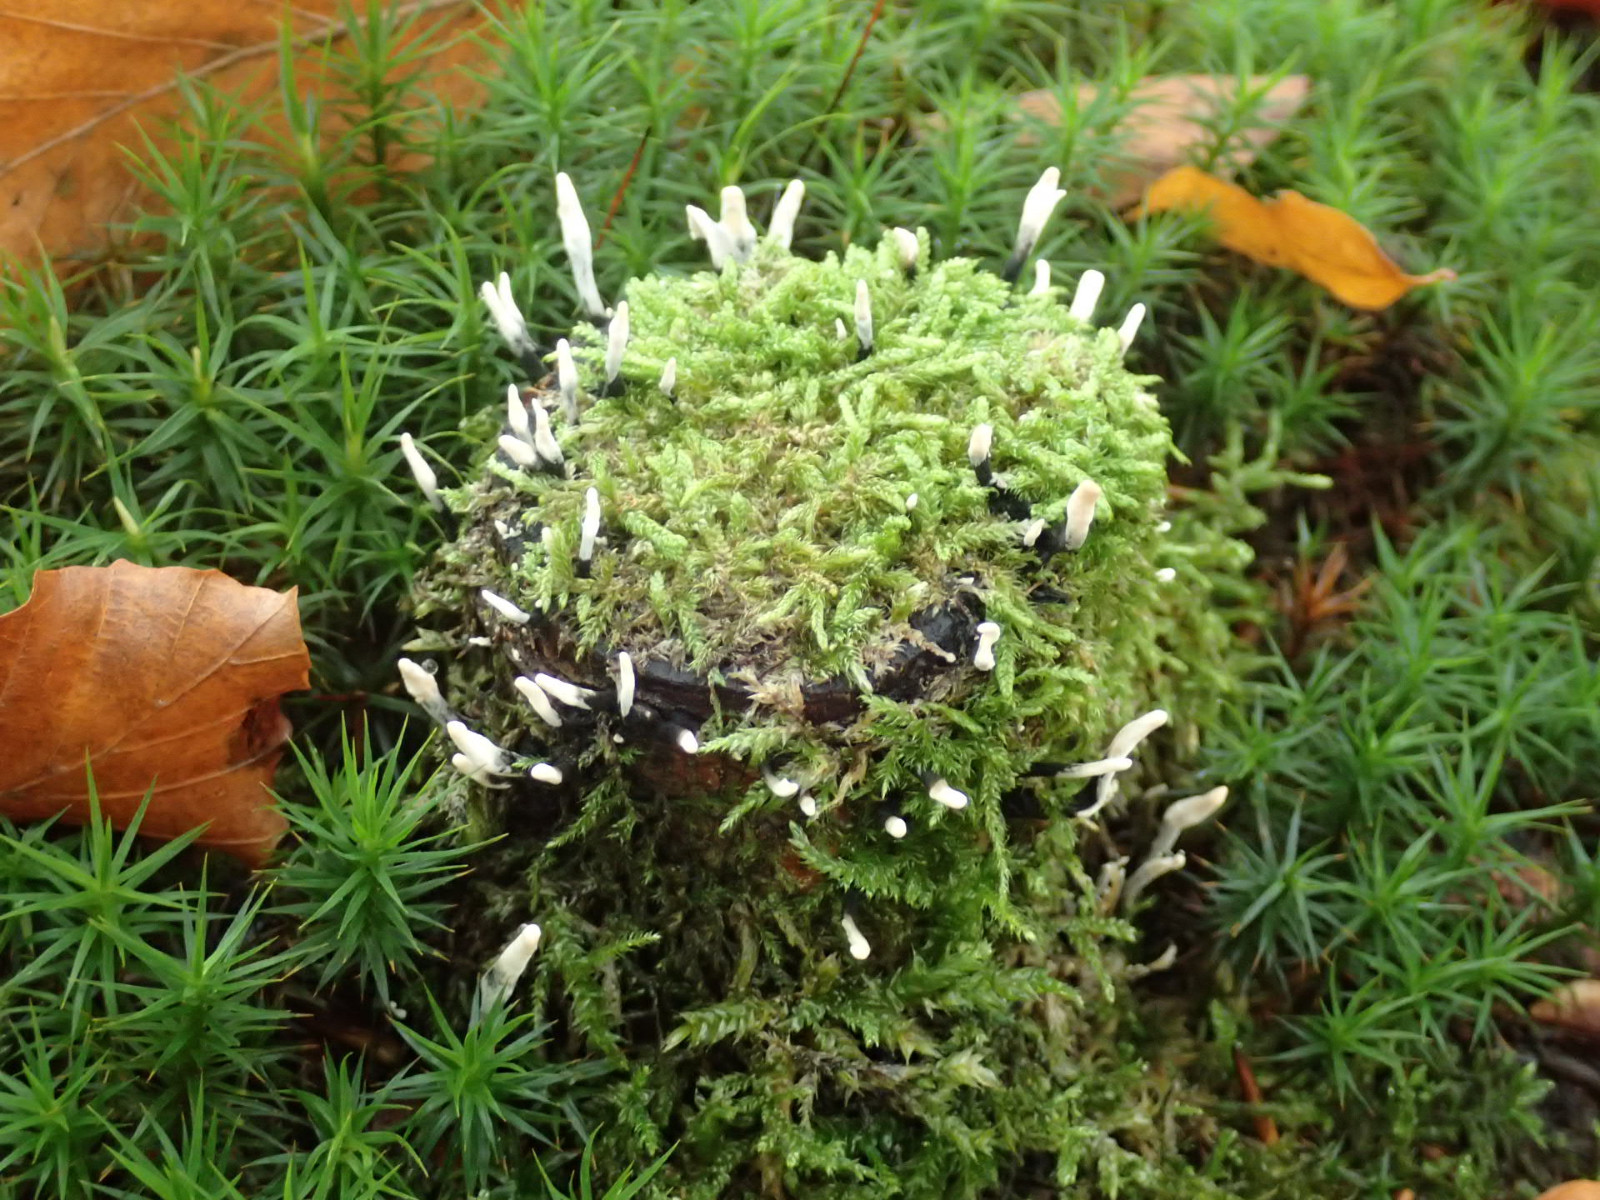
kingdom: Fungi
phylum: Ascomycota
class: Sordariomycetes
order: Xylariales
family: Xylariaceae
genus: Xylaria
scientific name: Xylaria hypoxylon
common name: grenet stødsvamp
